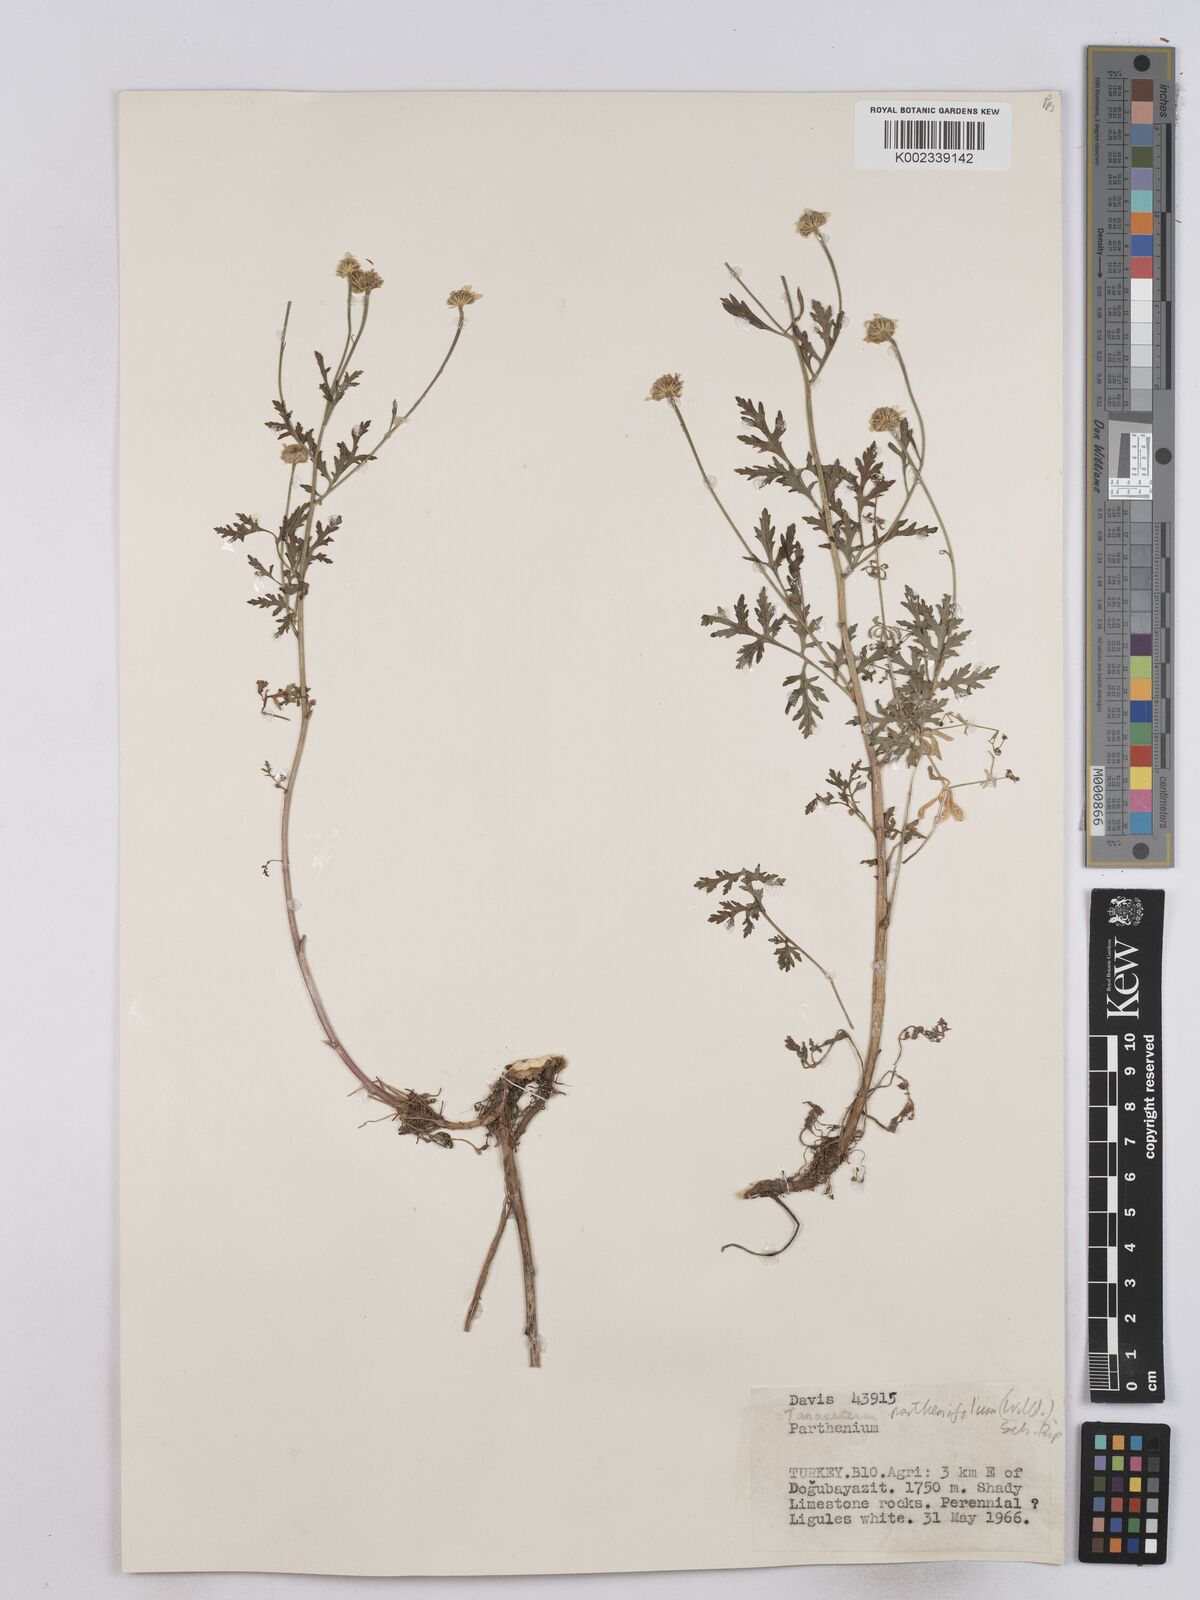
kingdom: Plantae
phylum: Tracheophyta
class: Magnoliopsida
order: Asterales
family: Asteraceae
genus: Tanacetum
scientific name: Tanacetum partheniifolium
